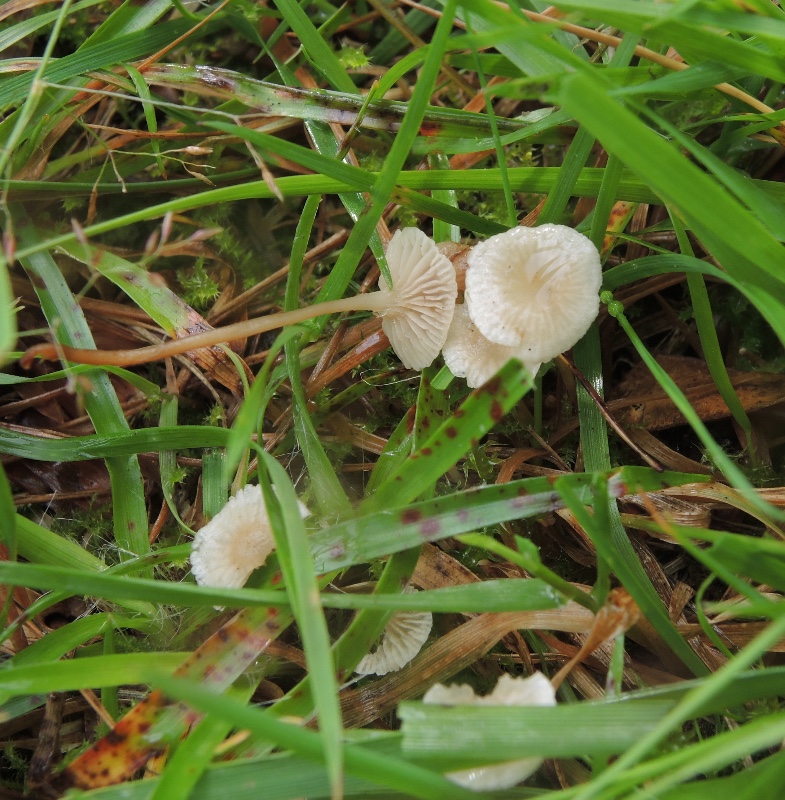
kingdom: Fungi
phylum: Basidiomycota
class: Agaricomycetes
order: Agaricales
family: Omphalotaceae
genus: Collybiopsis
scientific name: Collybiopsis vaillantii
